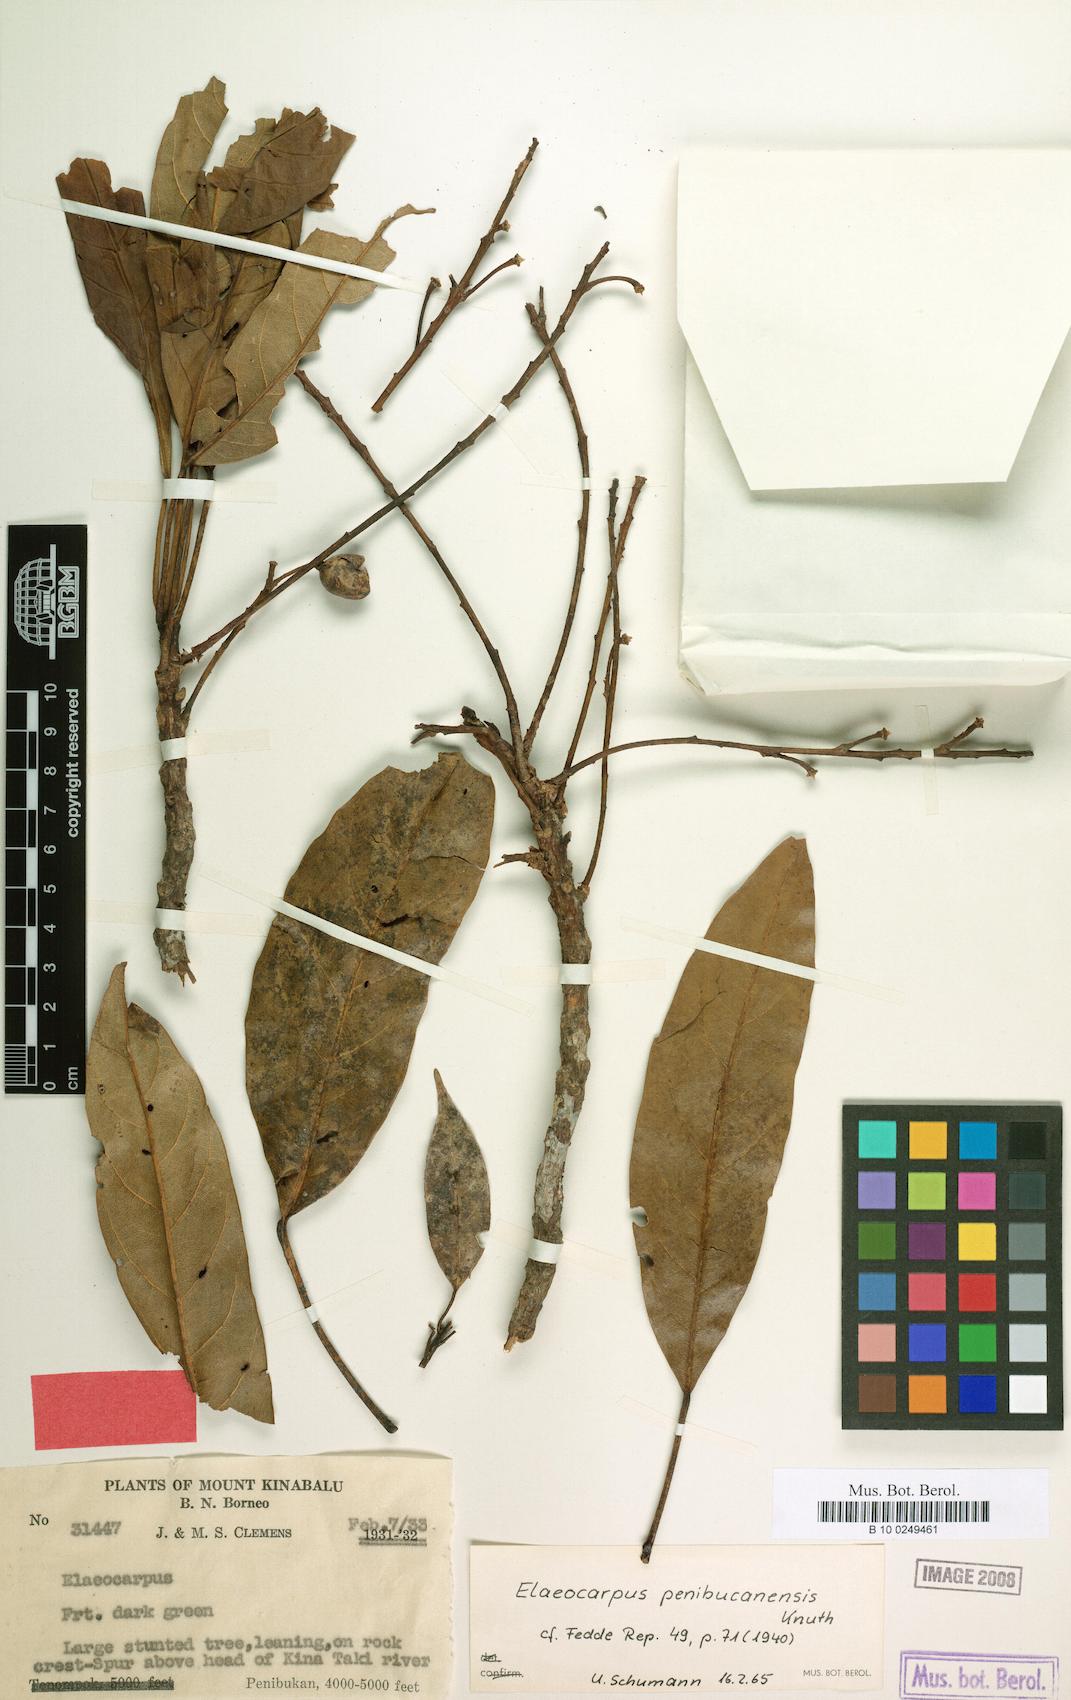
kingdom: Plantae
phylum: Tracheophyta
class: Magnoliopsida
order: Oxalidales
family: Elaeocarpaceae
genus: Elaeocarpus
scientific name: Elaeocarpus sadikanensis
